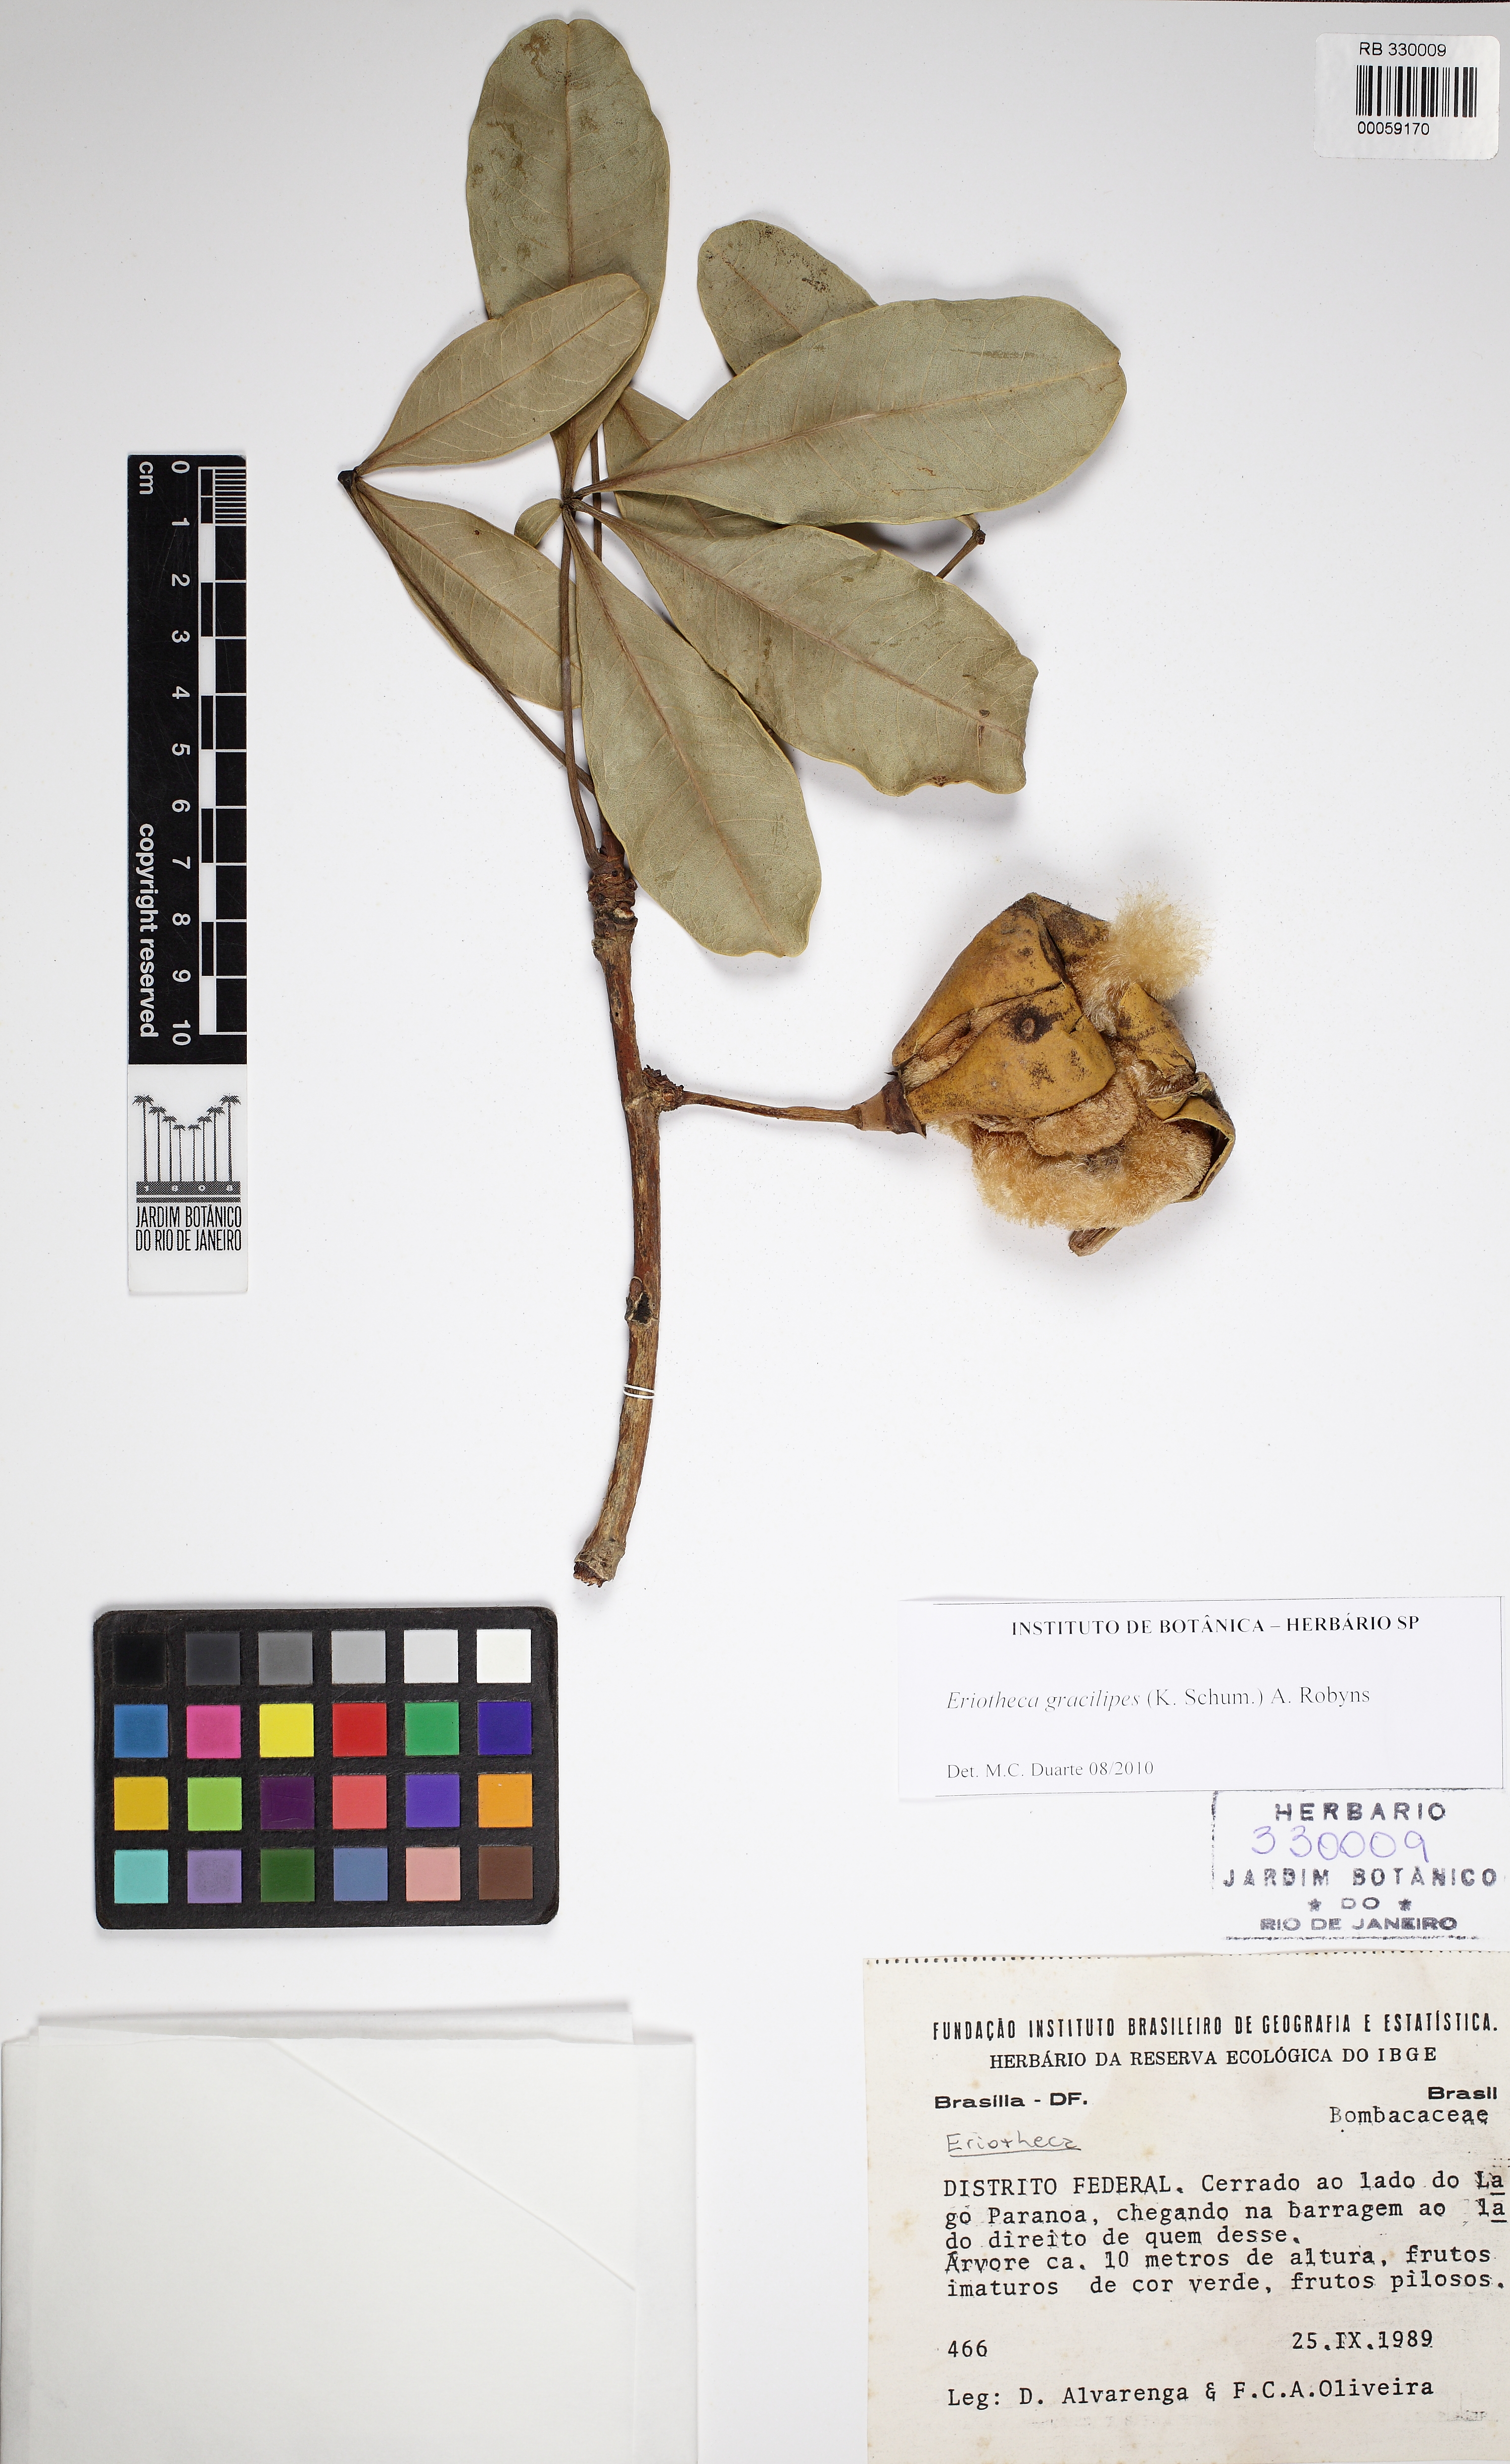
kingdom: Plantae
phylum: Tracheophyta
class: Magnoliopsida
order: Malvales
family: Malvaceae
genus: Eriotheca
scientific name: Eriotheca gracilipes
